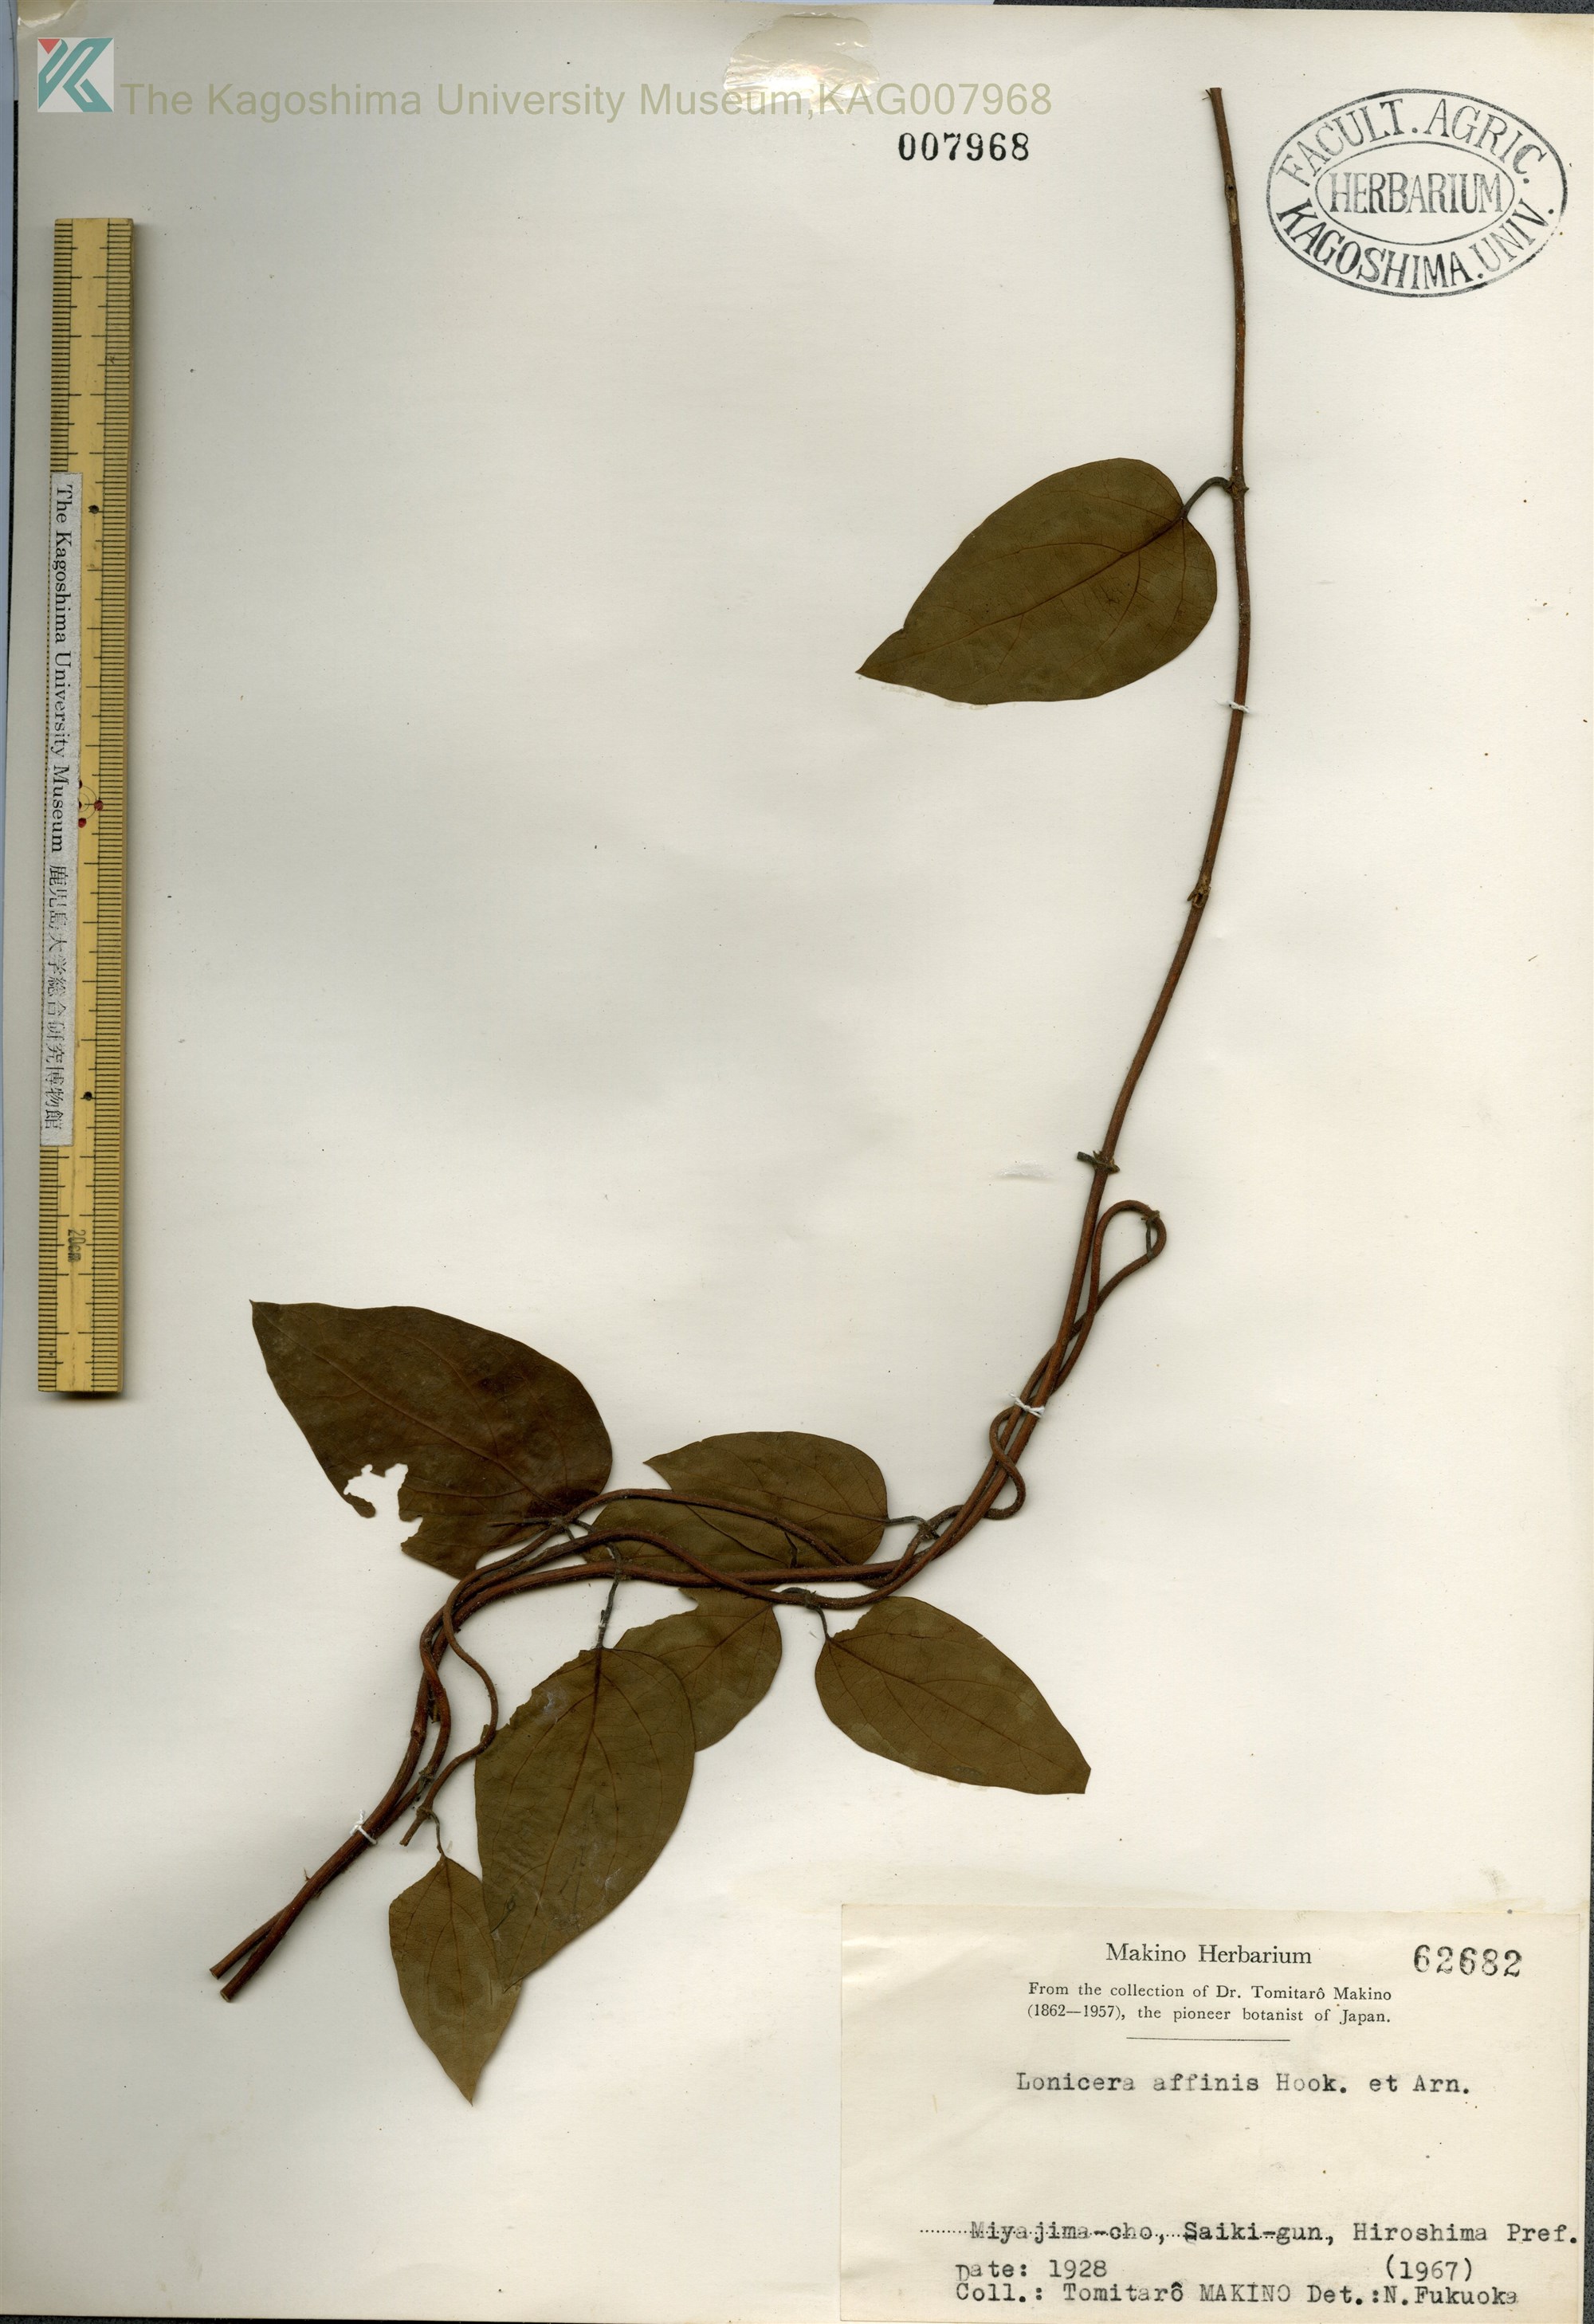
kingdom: Plantae
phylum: Tracheophyta
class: Magnoliopsida
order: Dipsacales
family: Caprifoliaceae
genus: Lonicera
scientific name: Lonicera affinis
